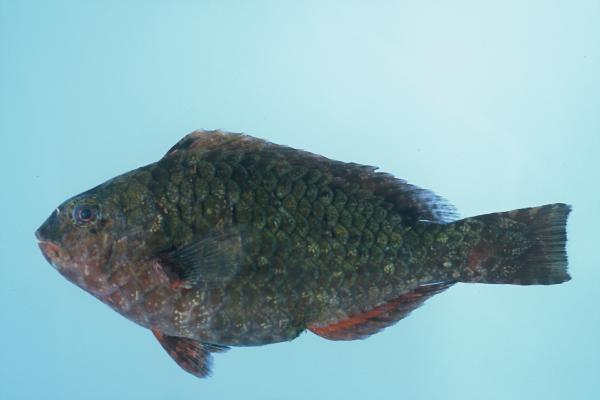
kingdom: Animalia
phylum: Chordata
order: Perciformes
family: Scaridae
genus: Calotomus
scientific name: Calotomus viridescens
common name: Dotted parrotfish
